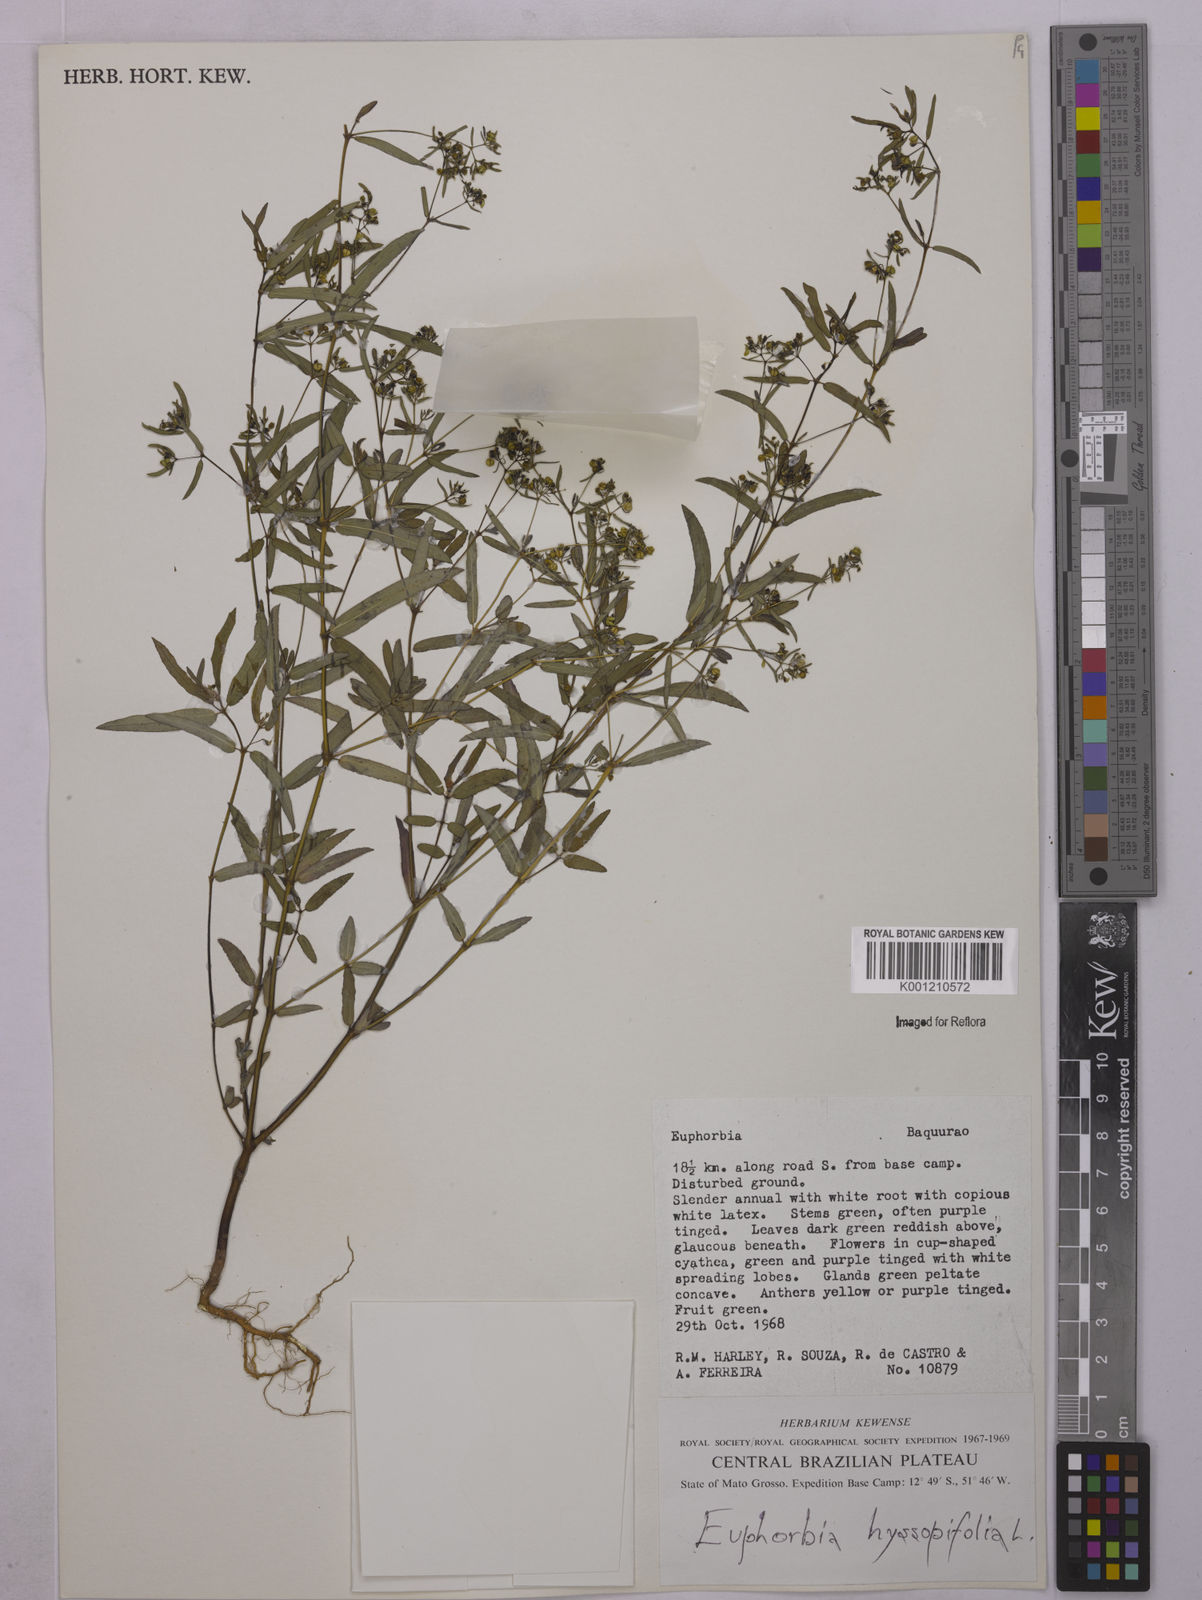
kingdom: Plantae
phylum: Tracheophyta
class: Magnoliopsida
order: Malpighiales
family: Euphorbiaceae
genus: Euphorbia
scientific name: Euphorbia hyssopifolia
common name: Hyssopleaf sandmat
